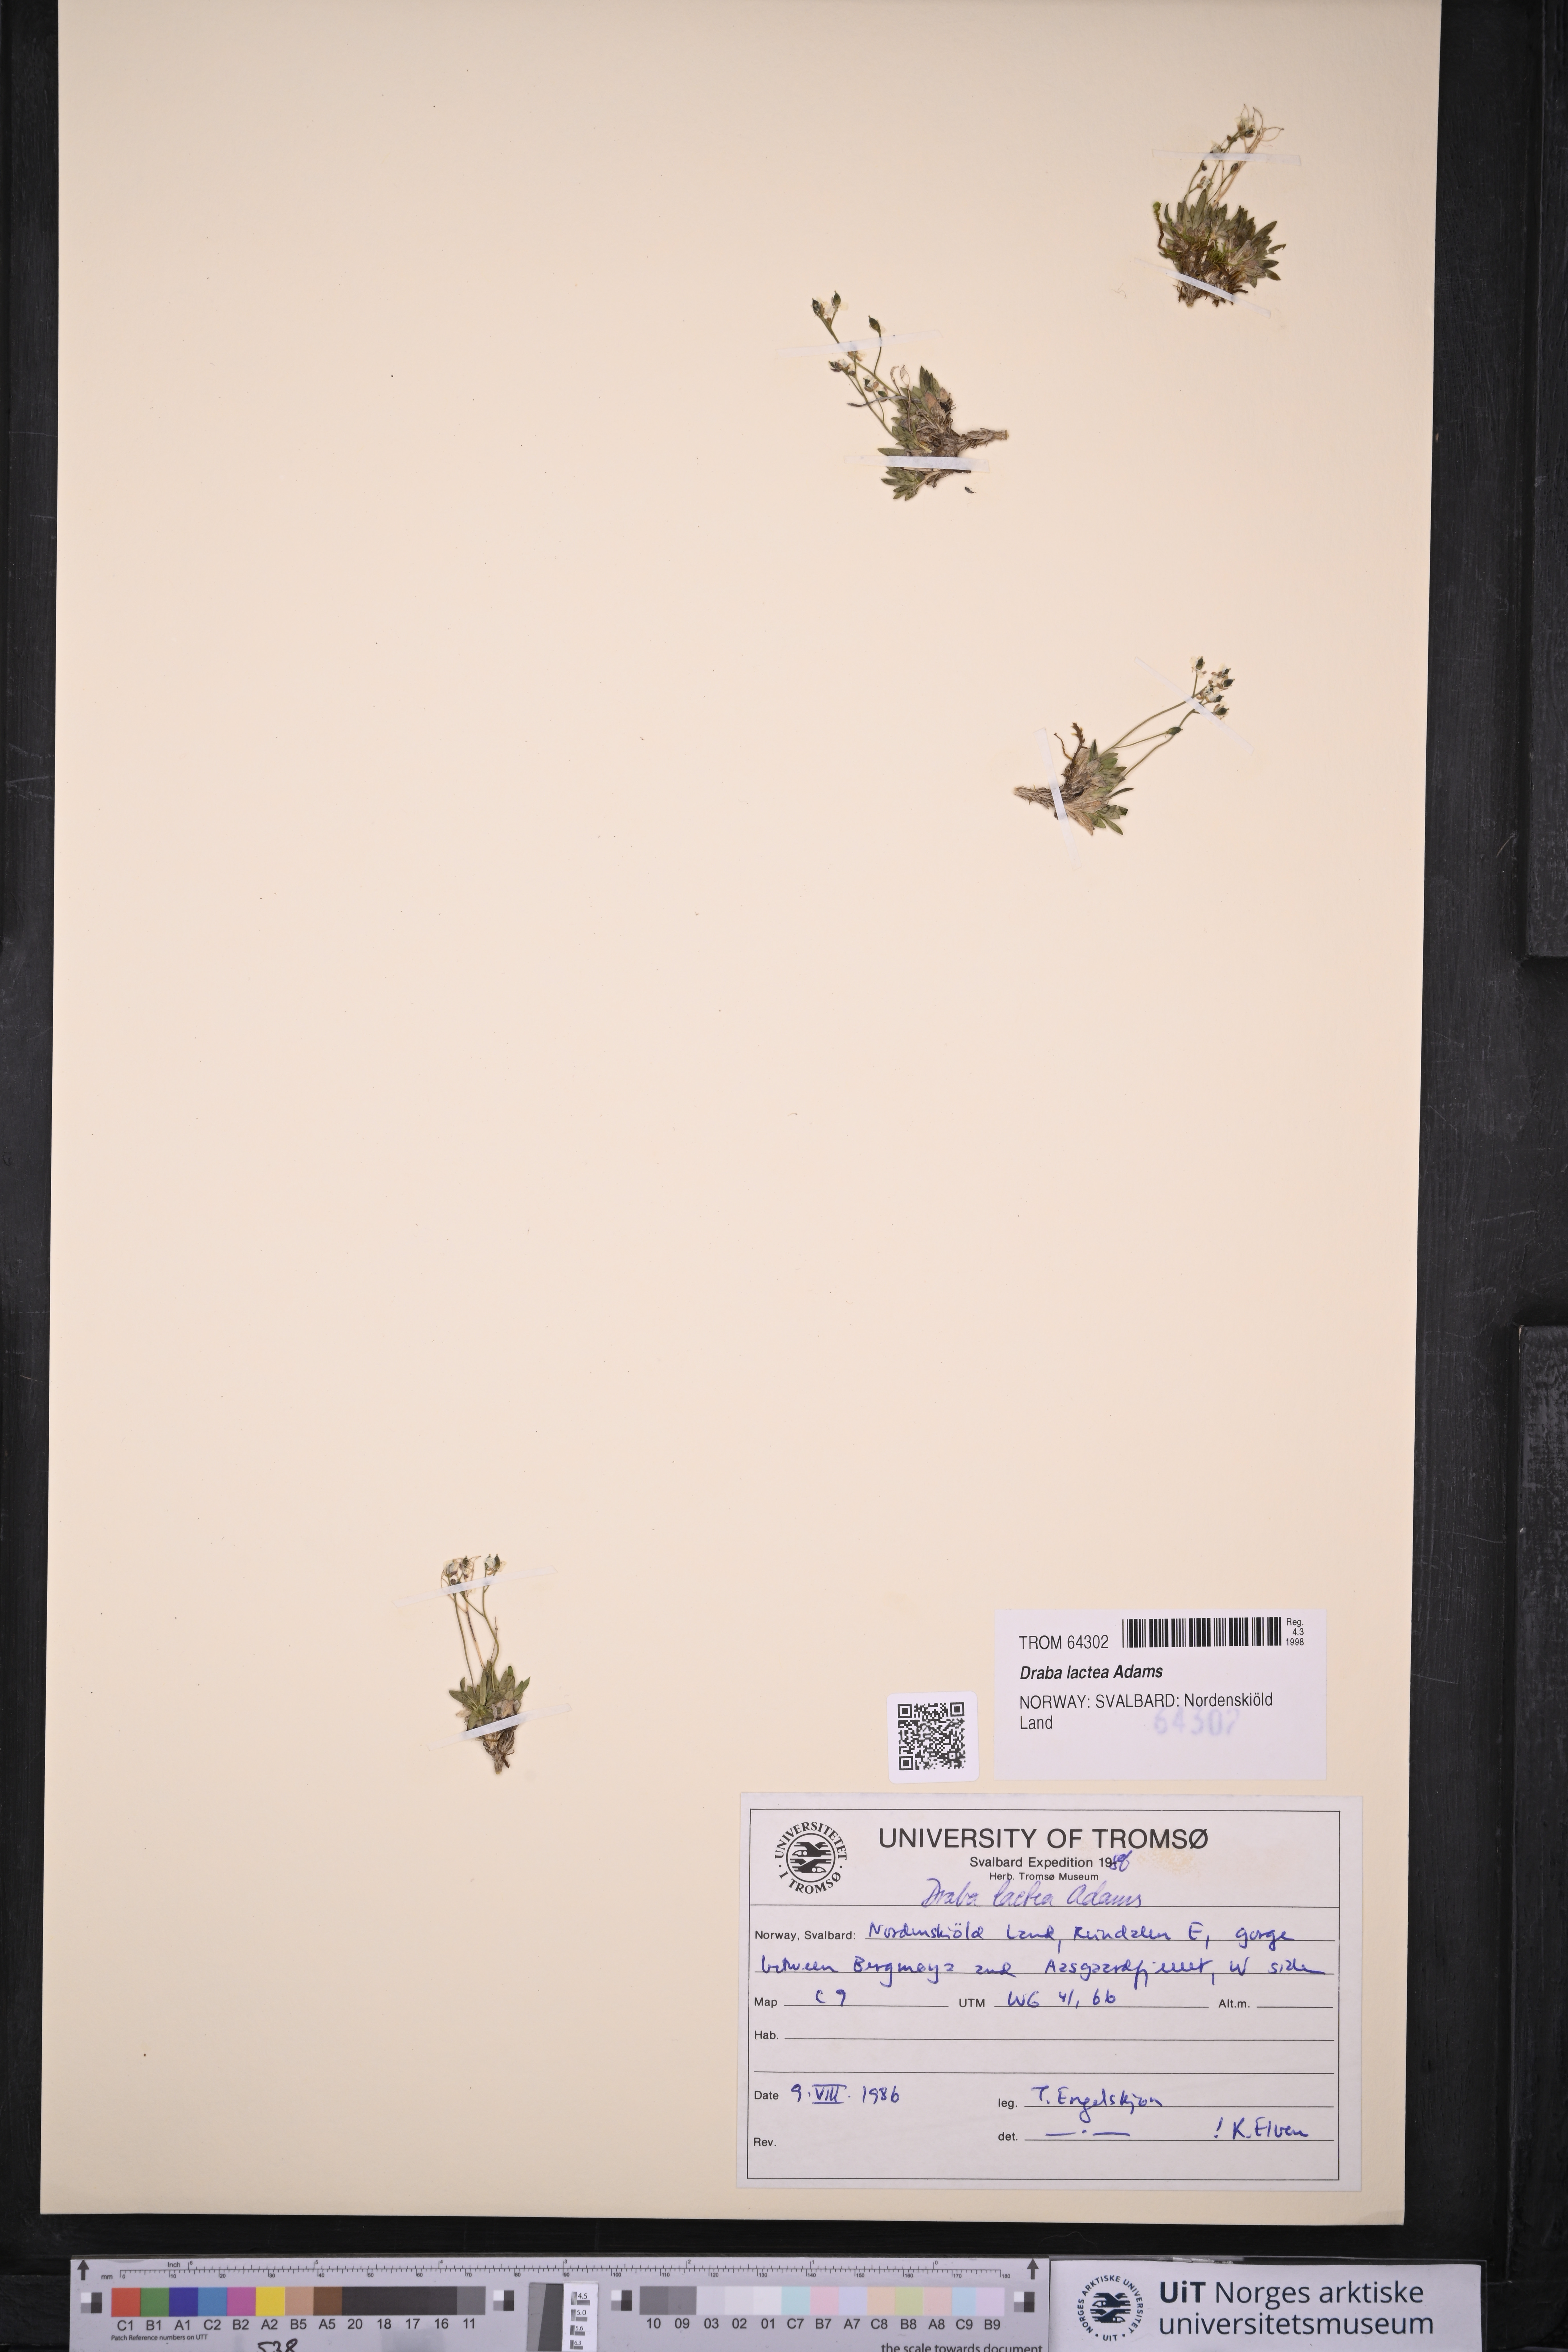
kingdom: Plantae
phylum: Tracheophyta
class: Magnoliopsida
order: Brassicales
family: Brassicaceae
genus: Draba
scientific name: Draba lactea
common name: Milky draba
